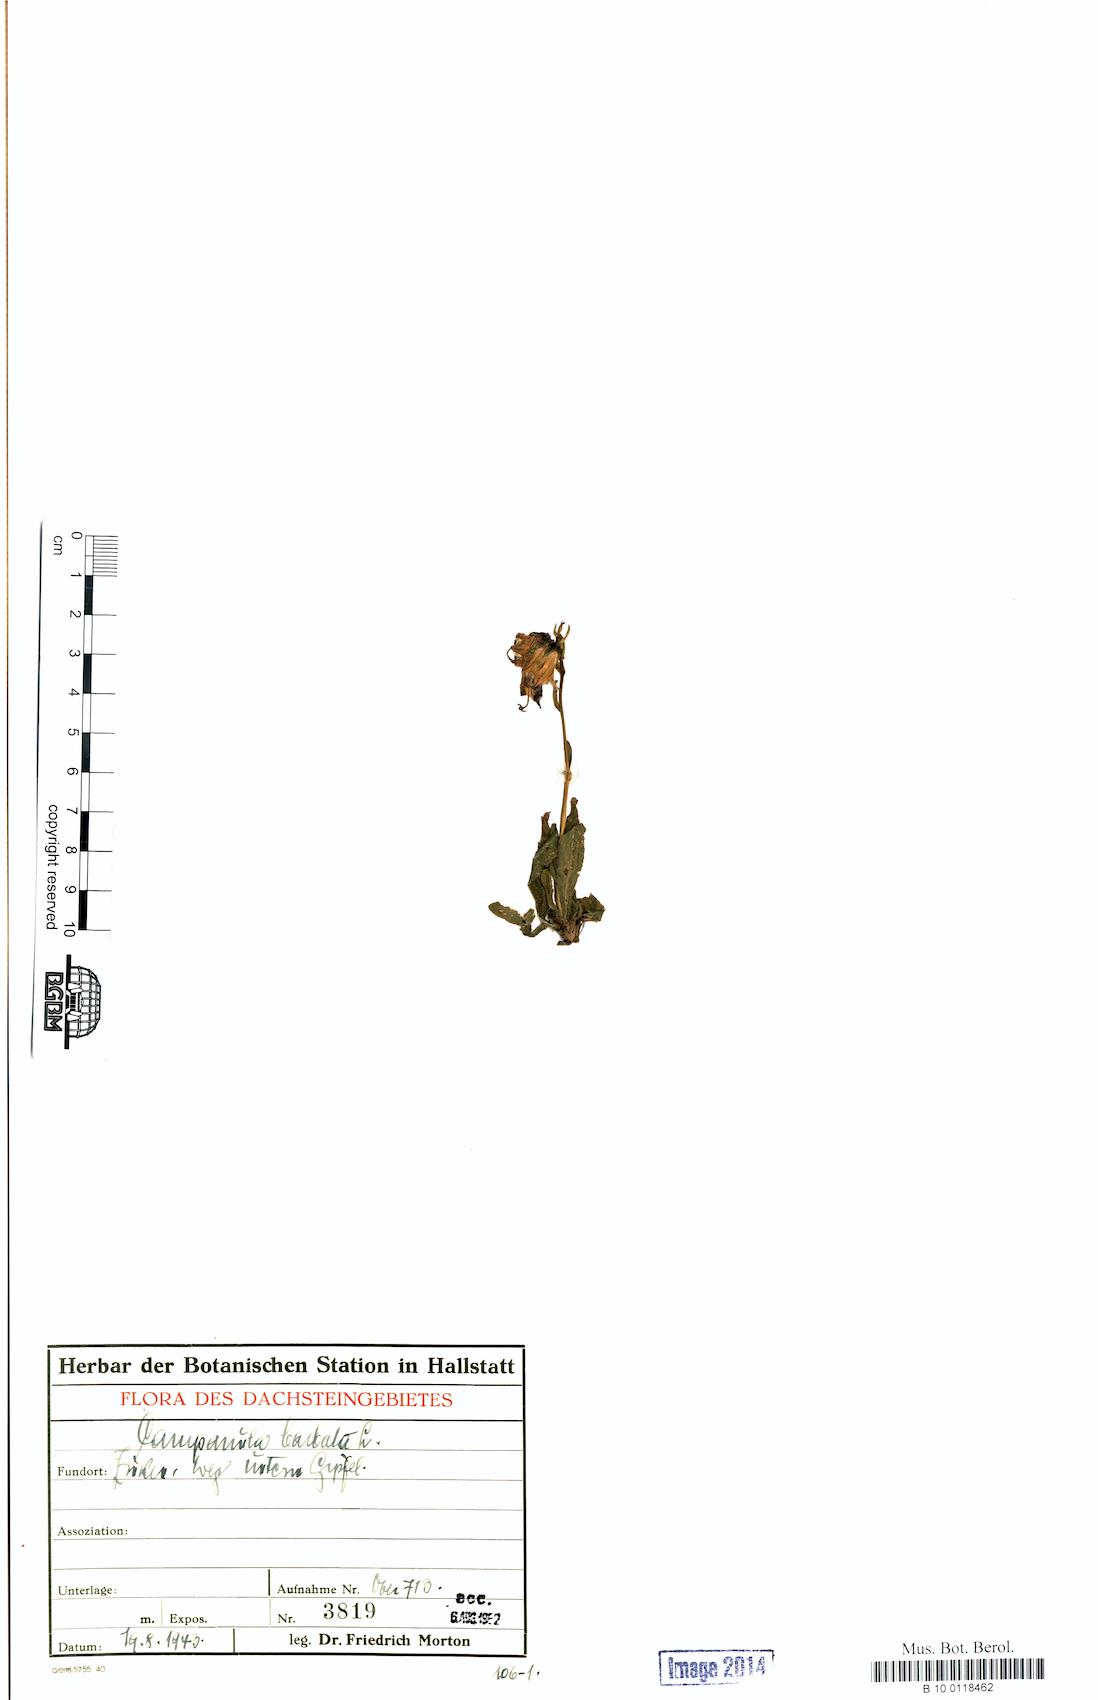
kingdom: Plantae
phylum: Tracheophyta
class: Magnoliopsida
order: Asterales
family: Campanulaceae
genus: Campanula
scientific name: Campanula barbata
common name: Bearded bellflower
